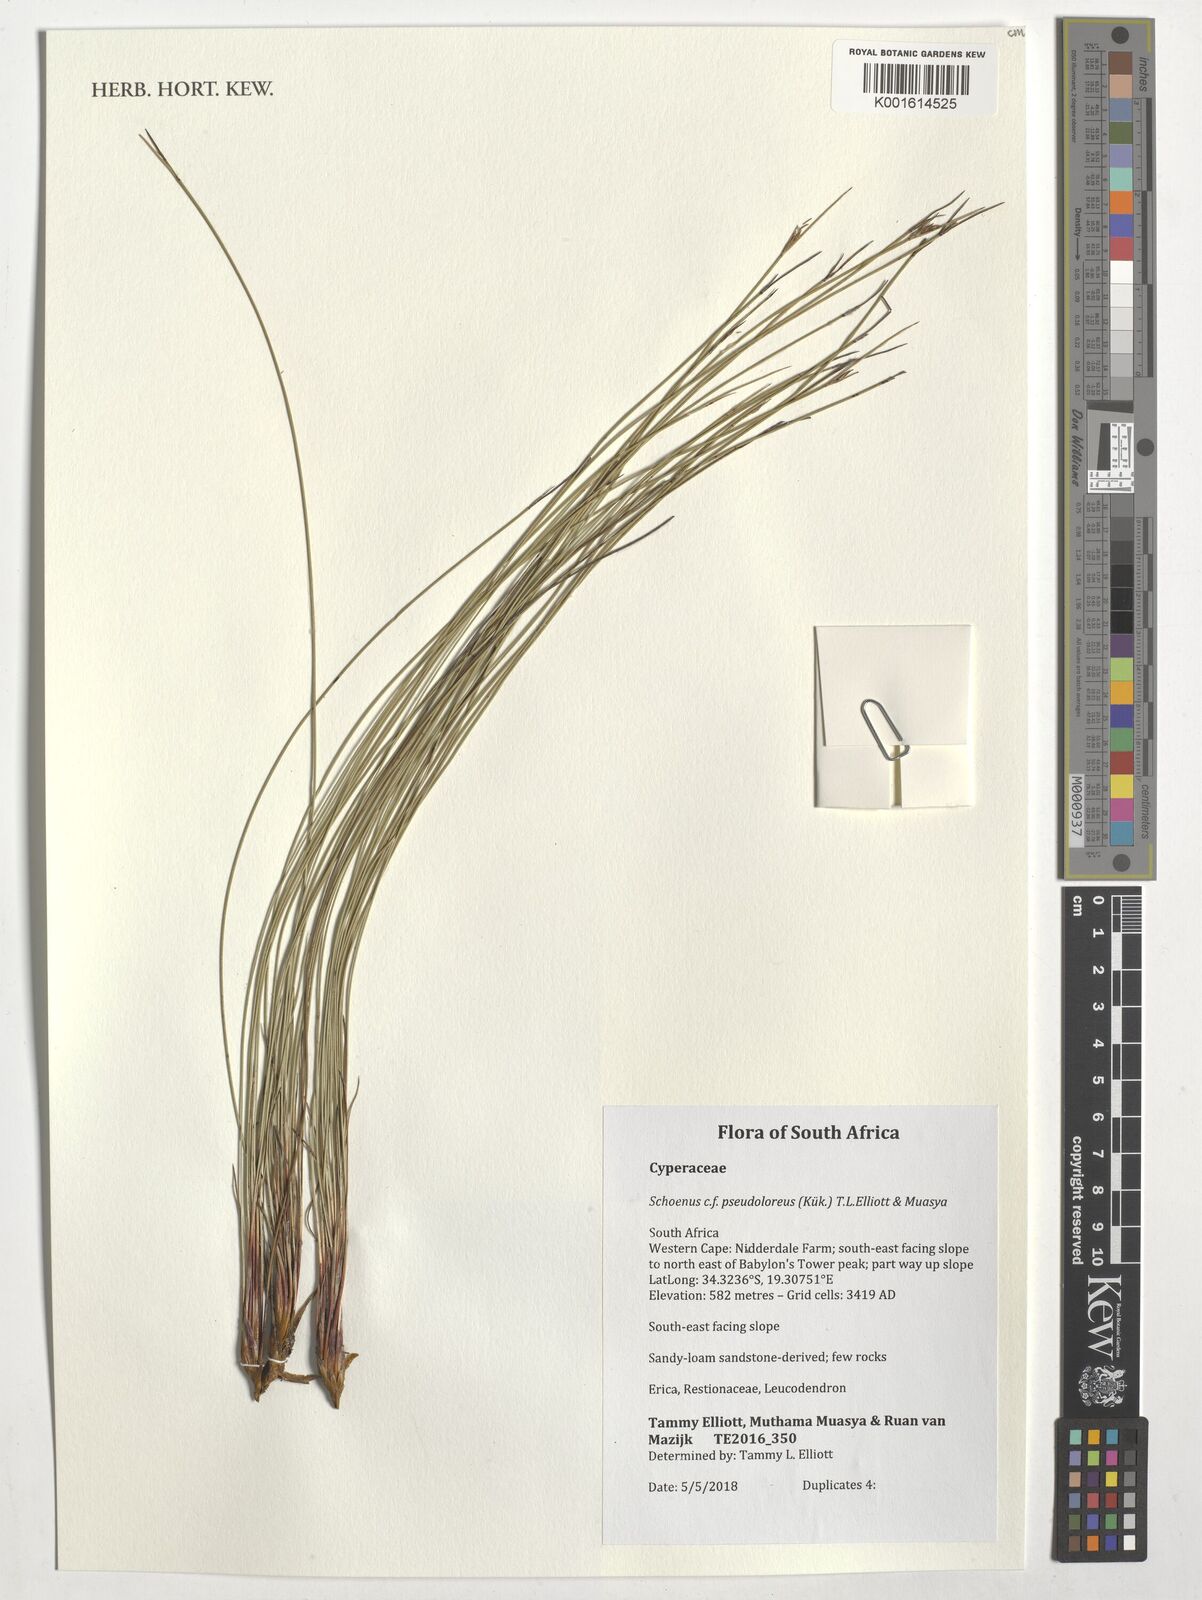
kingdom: Plantae
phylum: Tracheophyta
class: Liliopsida
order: Poales
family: Cyperaceae
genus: Schoenus
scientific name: Schoenus pseudoloreus
